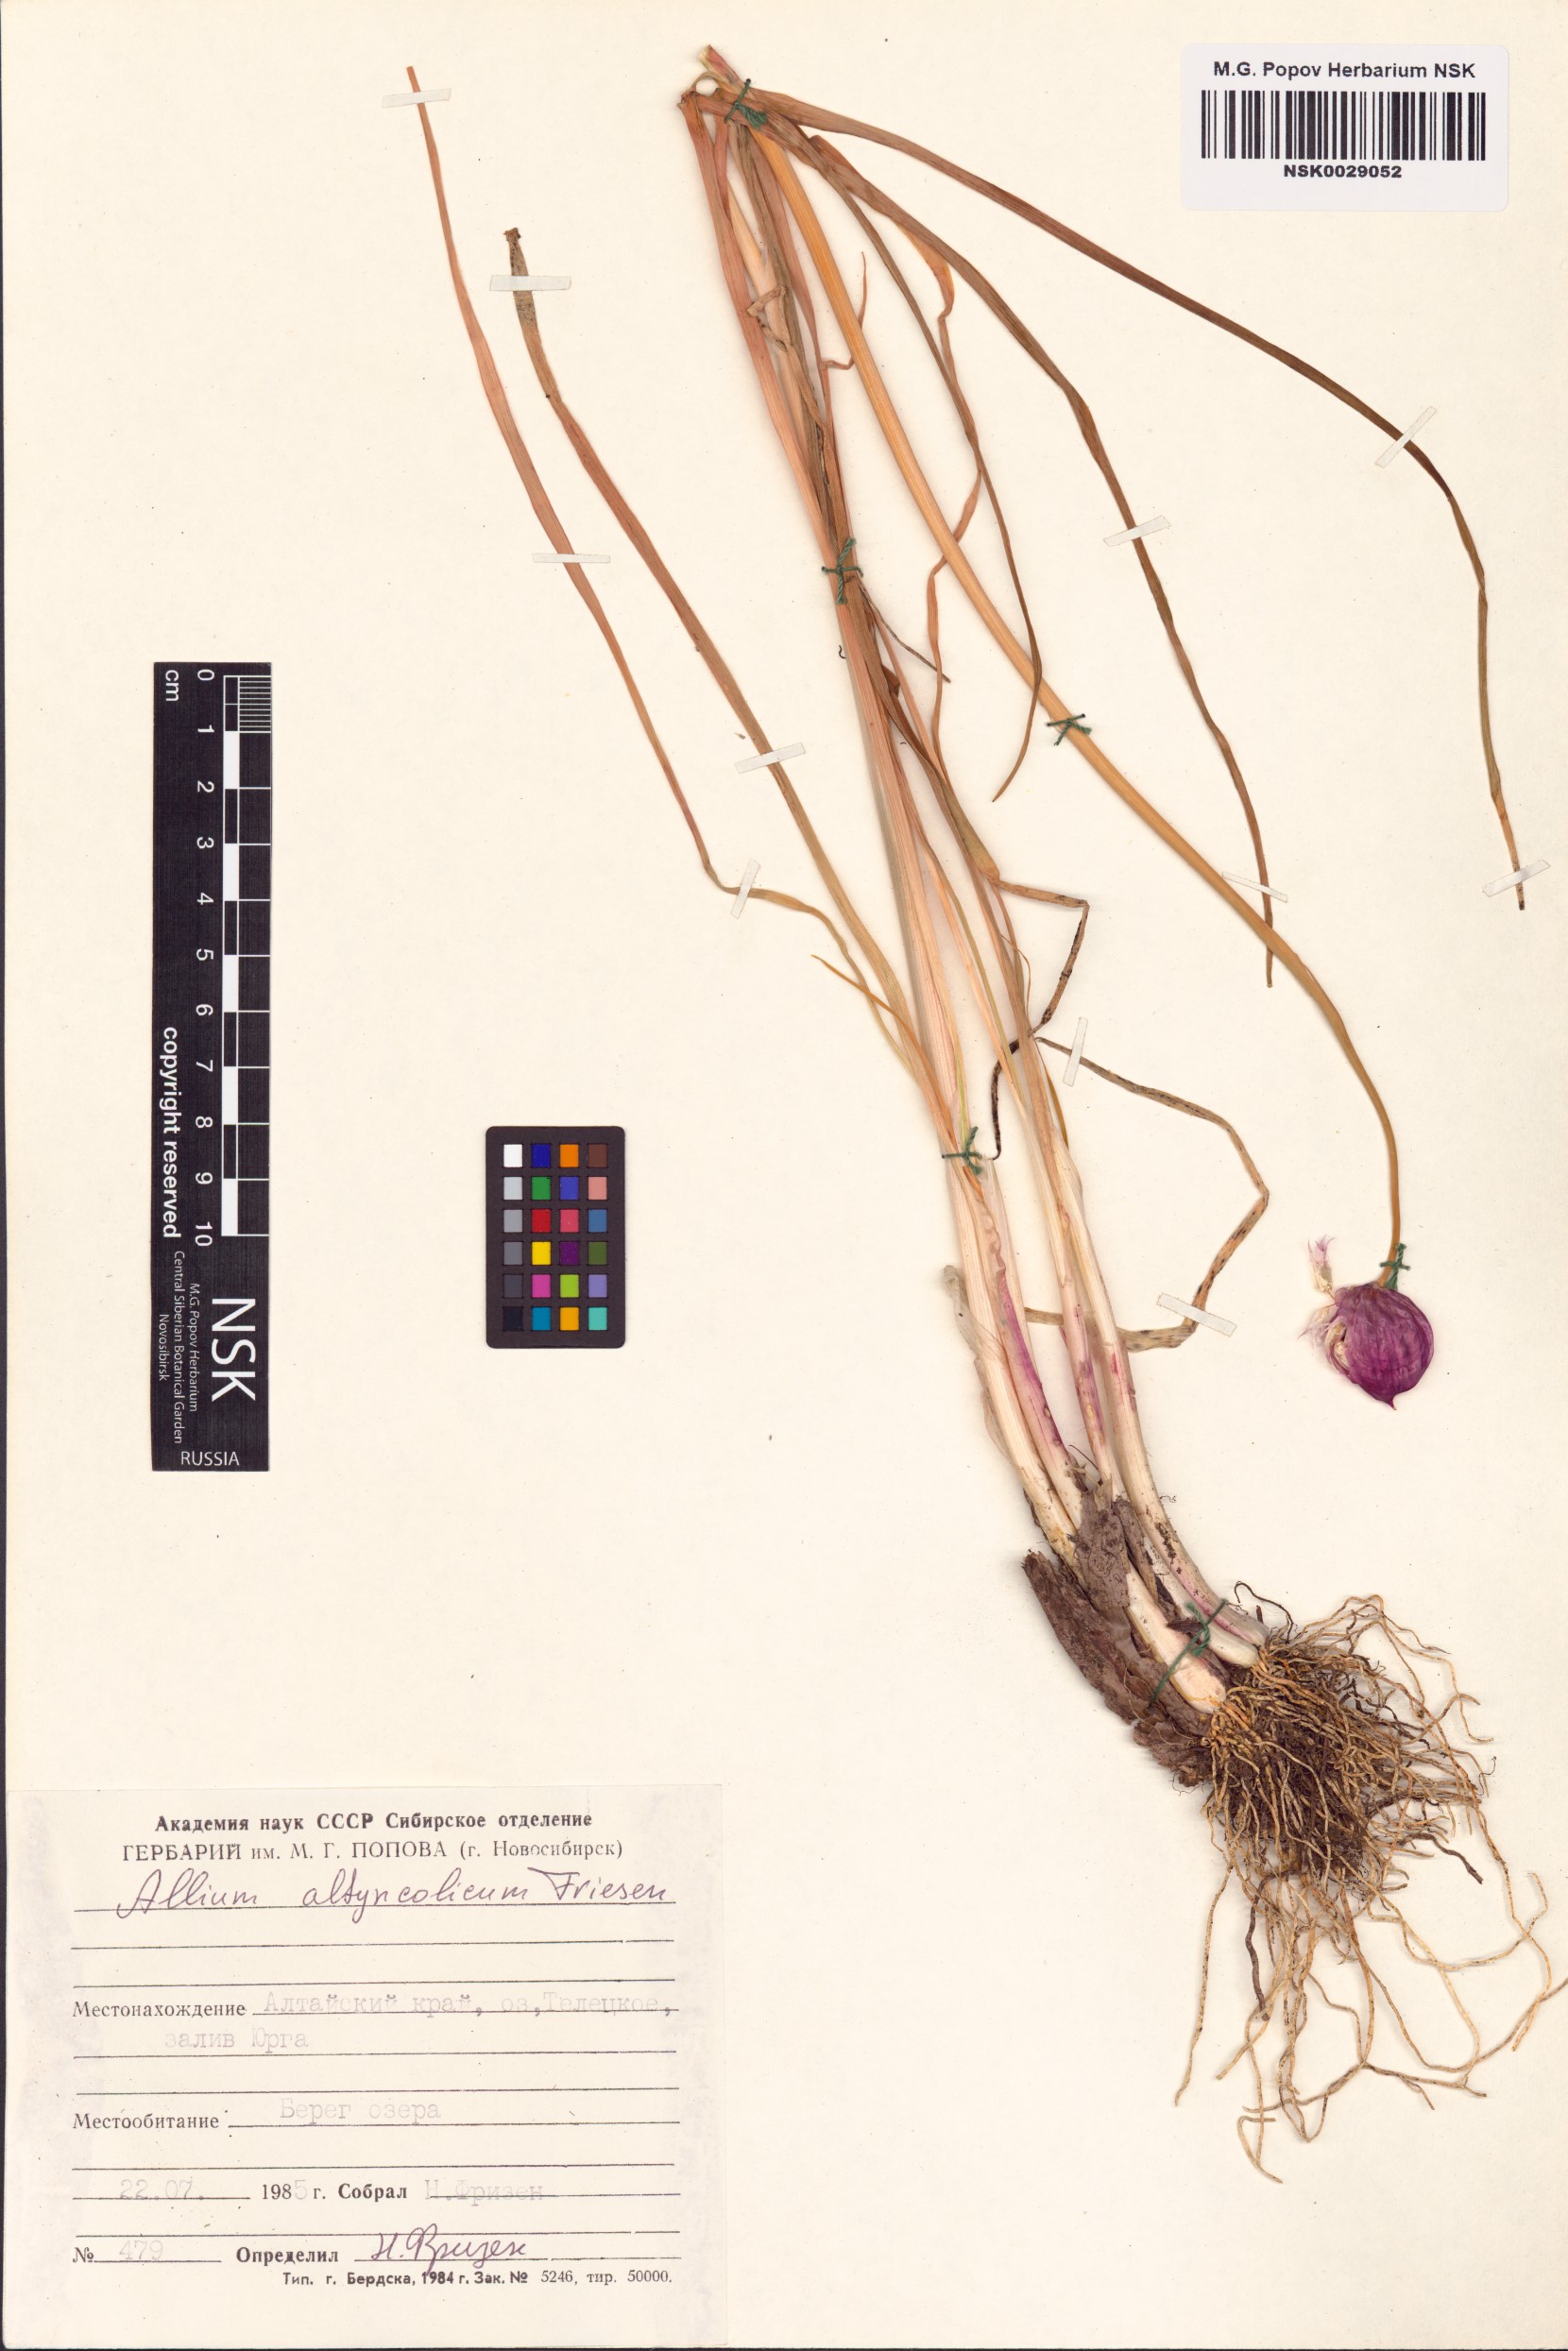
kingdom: Plantae
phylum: Tracheophyta
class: Liliopsida
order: Asparagales
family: Amaryllidaceae
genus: Allium
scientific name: Allium altyncolicum
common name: Altynkol chive
